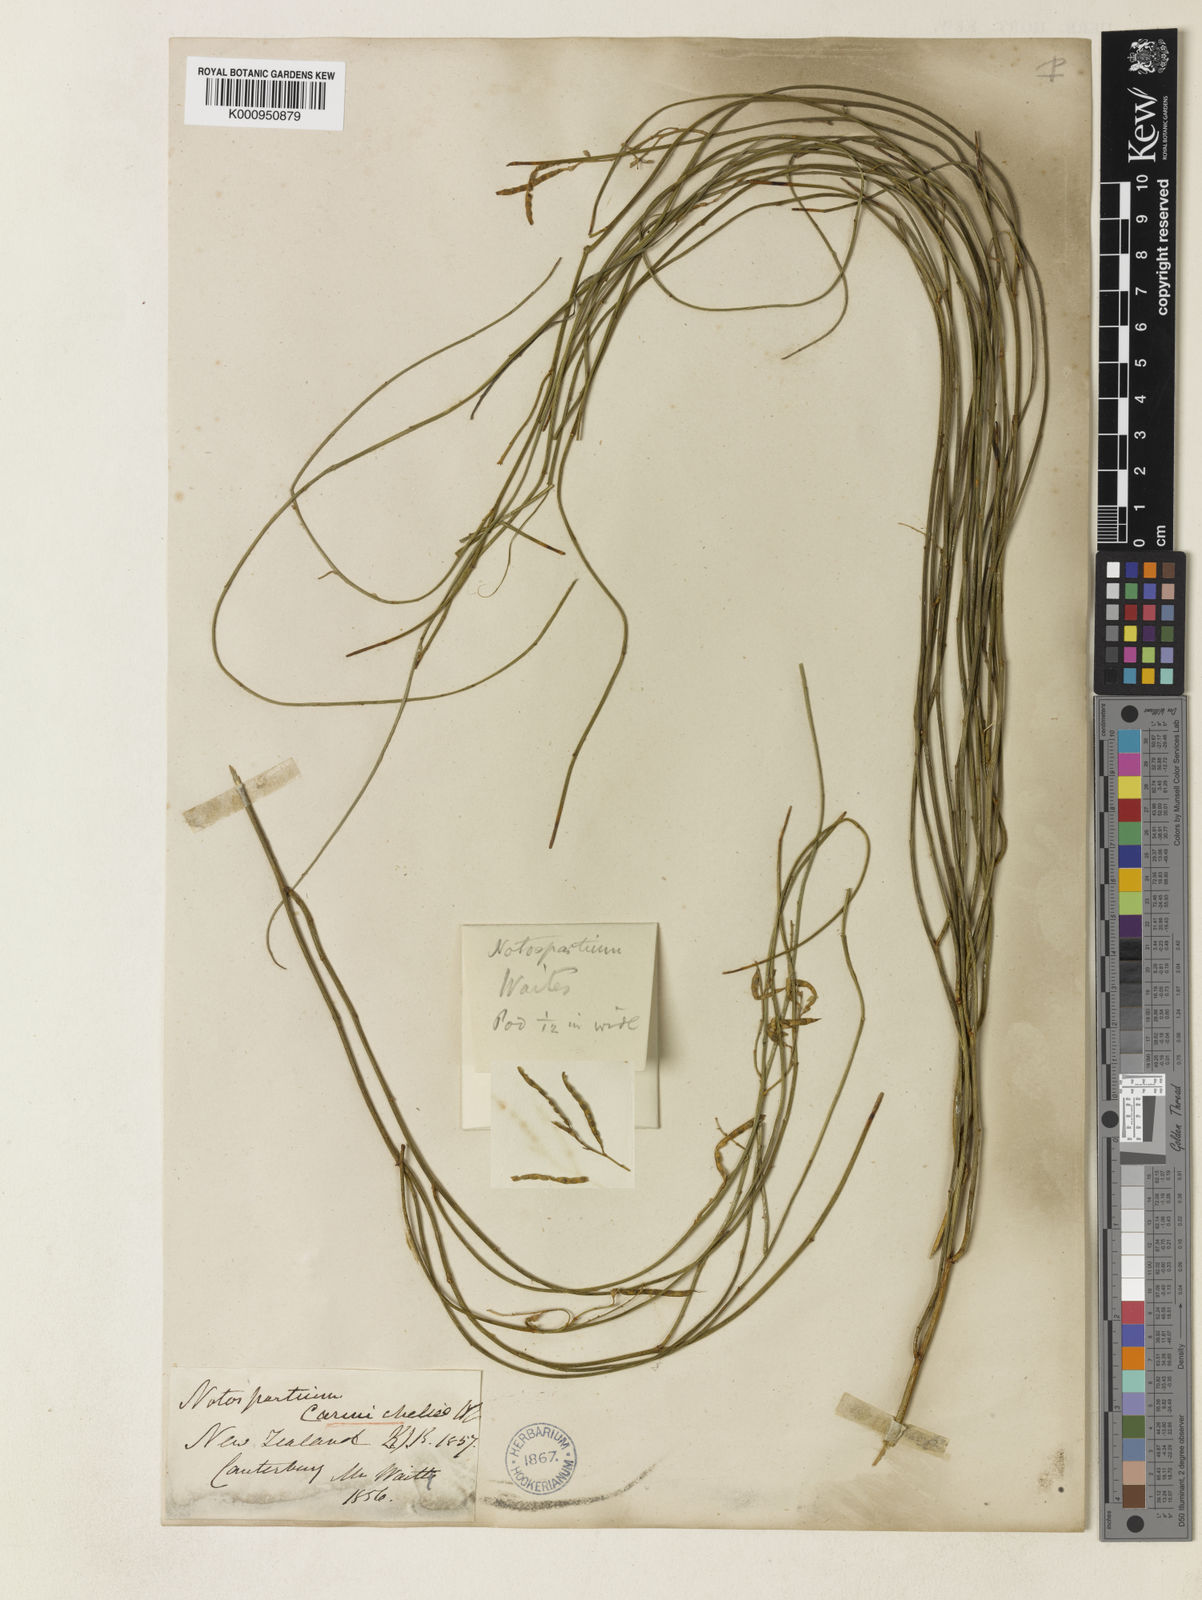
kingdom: Plantae
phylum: Tracheophyta
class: Magnoliopsida
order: Fabales
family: Fabaceae
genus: Carmichaelia
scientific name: Carmichaelia carmichaeliae
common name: Pink-broom
